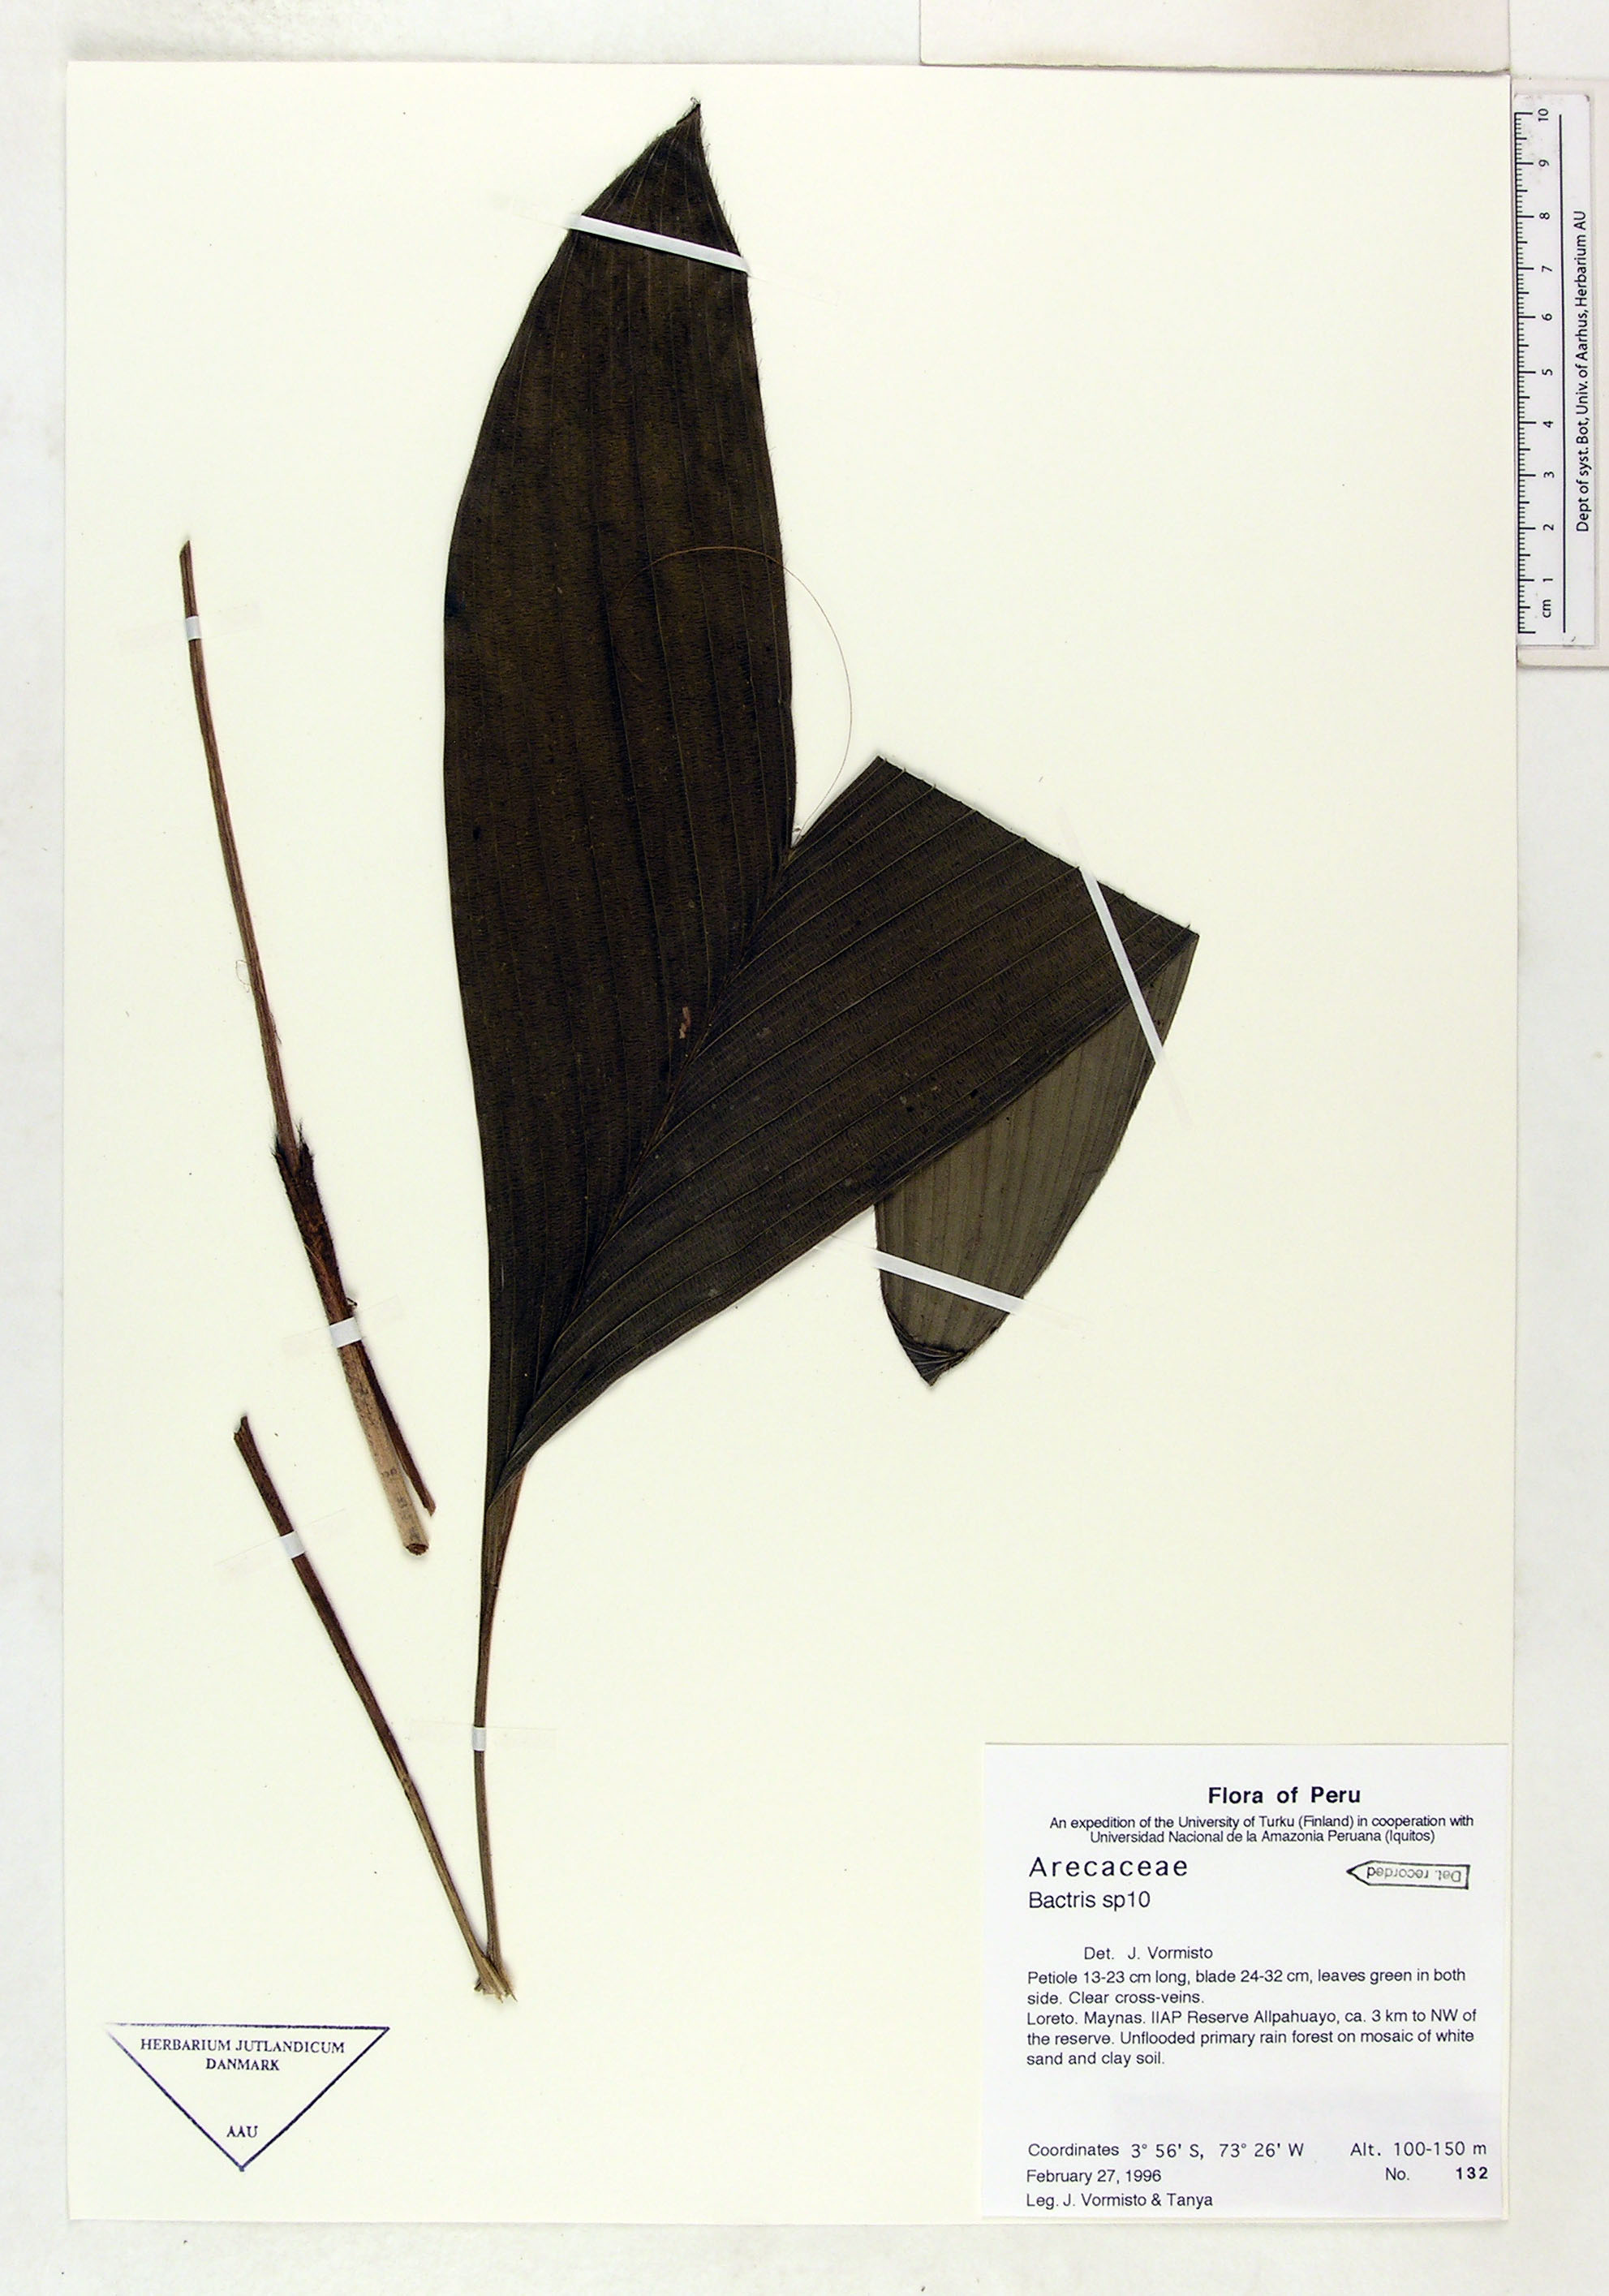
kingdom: Plantae
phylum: Tracheophyta
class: Liliopsida
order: Arecales
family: Arecaceae
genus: Bactris
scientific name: Bactris
